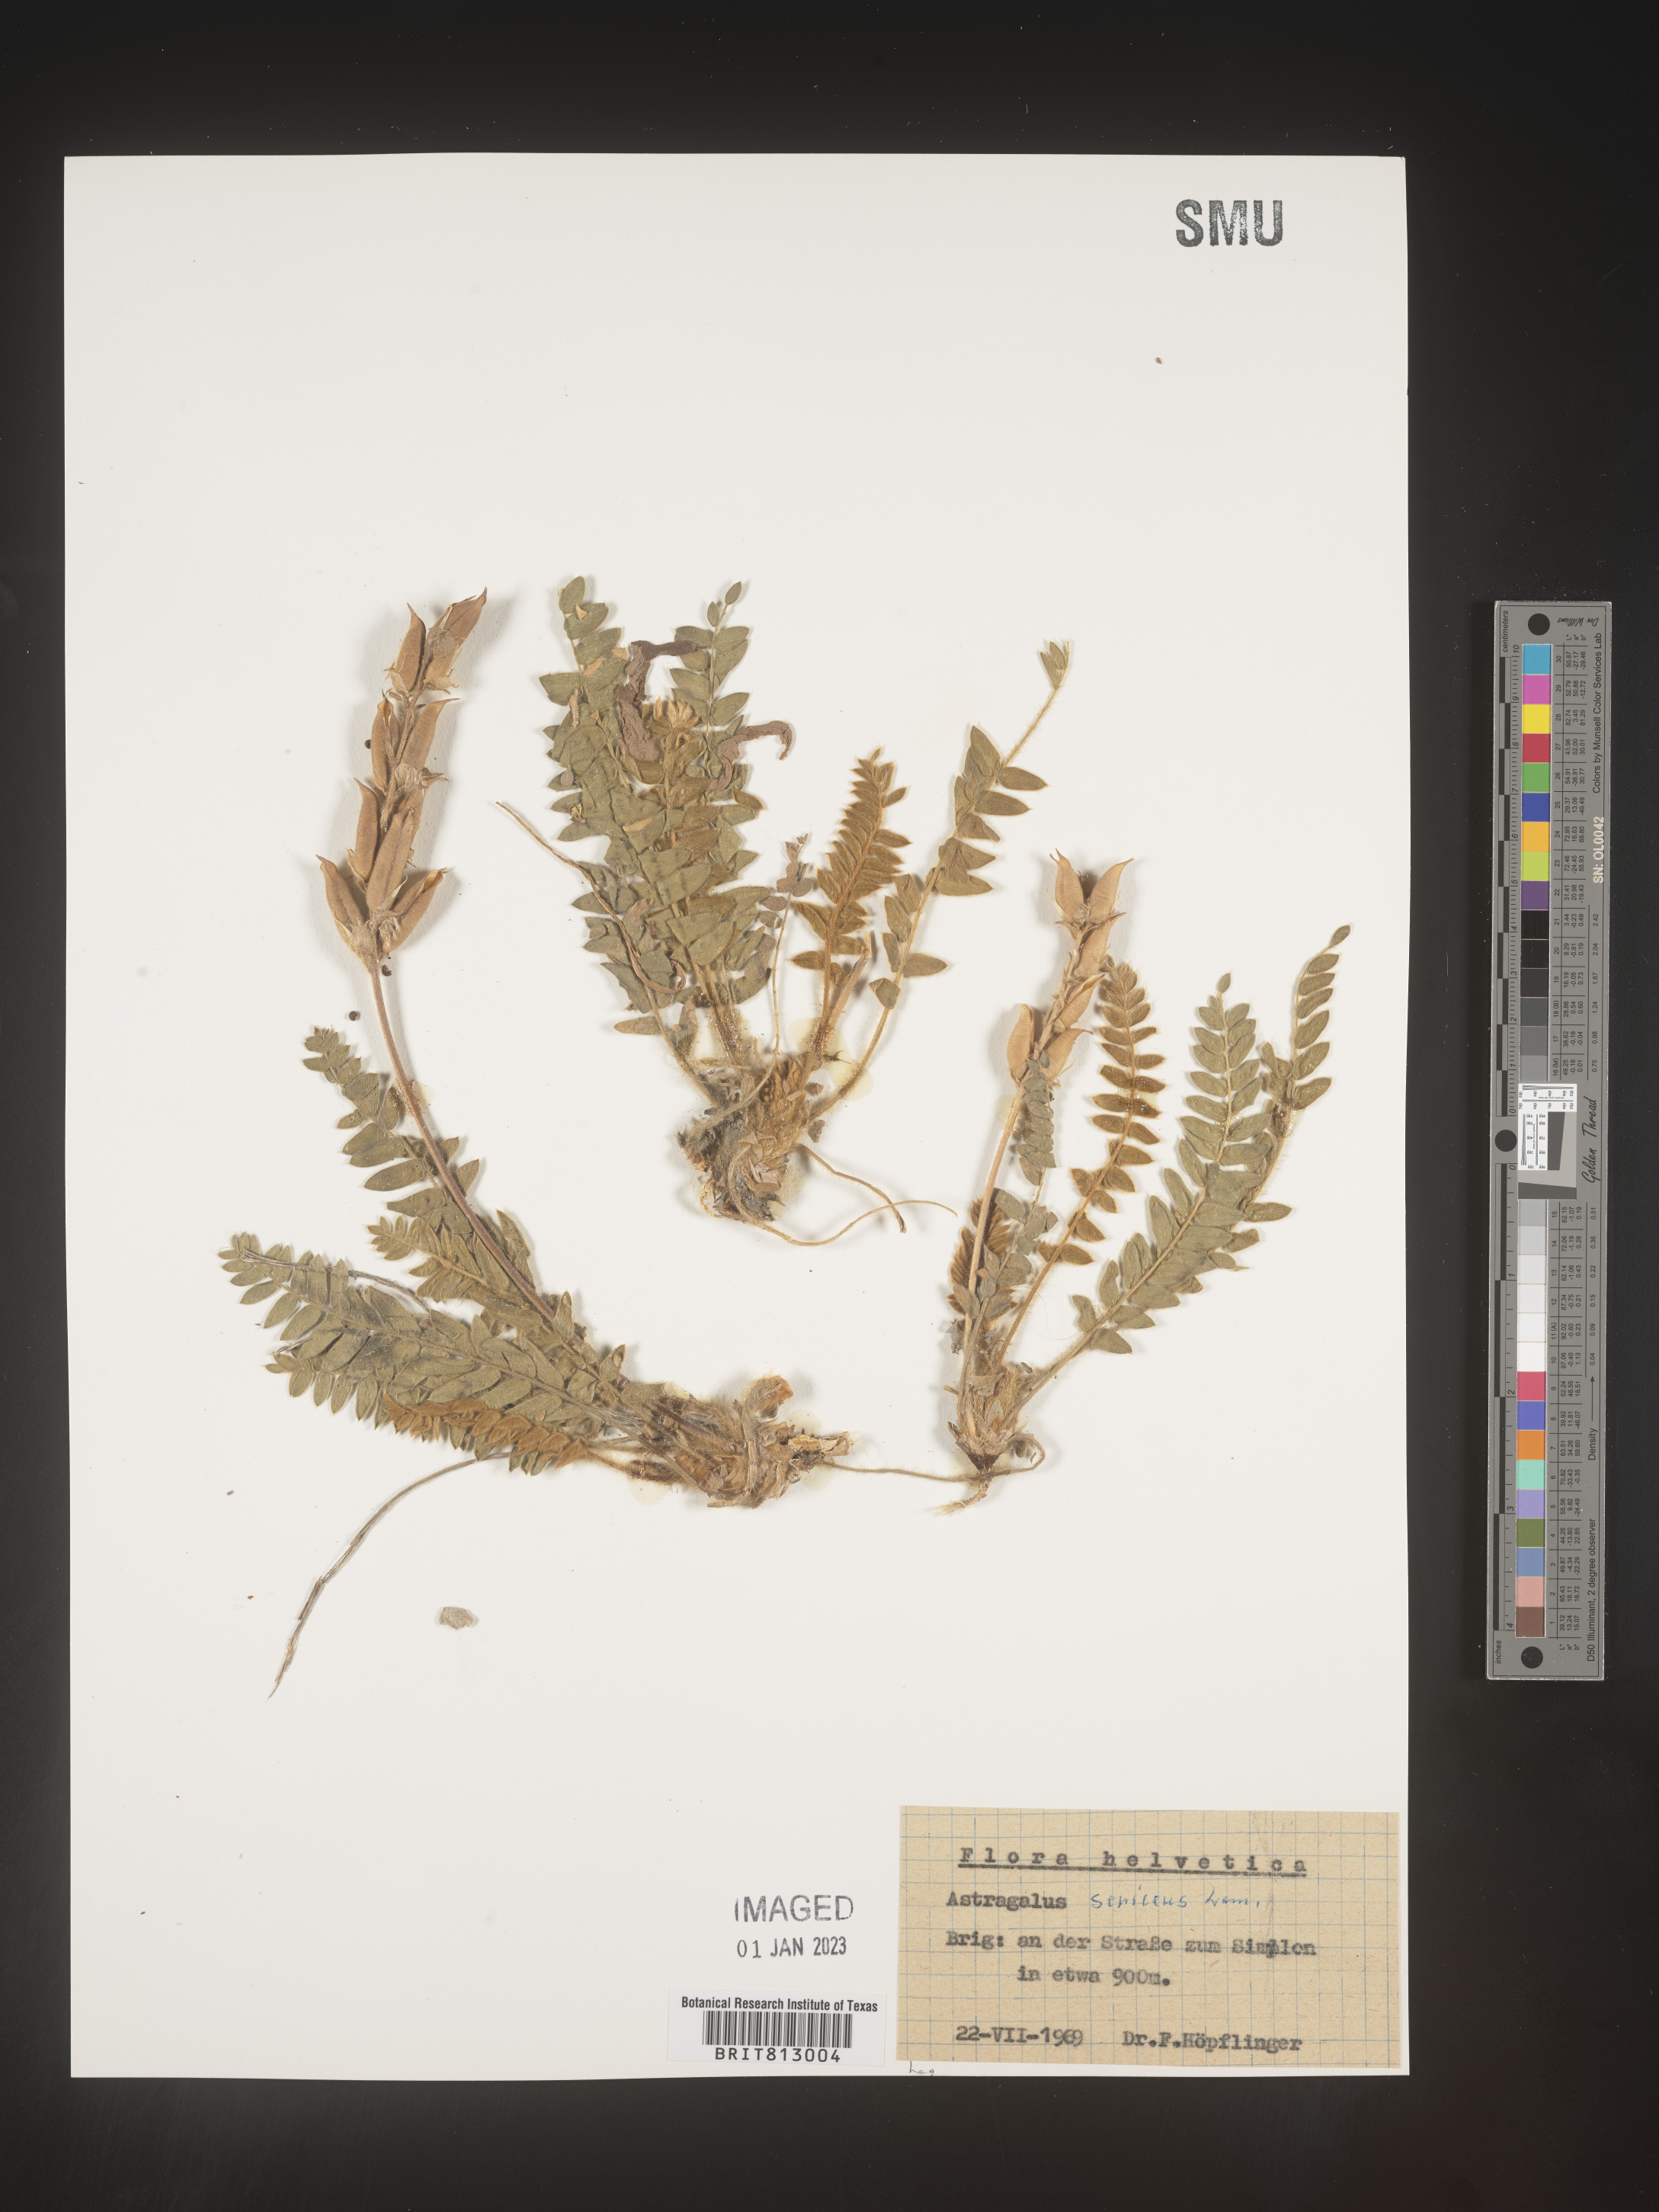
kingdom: Plantae
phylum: Tracheophyta
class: Magnoliopsida
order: Fabales
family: Fabaceae
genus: Astragalus
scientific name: Astragalus
